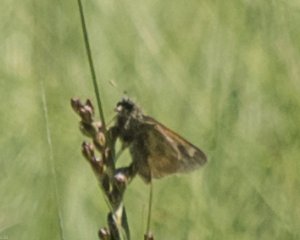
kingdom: Animalia
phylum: Arthropoda
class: Insecta
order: Lepidoptera
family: Hesperiidae
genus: Polites
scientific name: Polites coras
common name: Peck's Skipper
